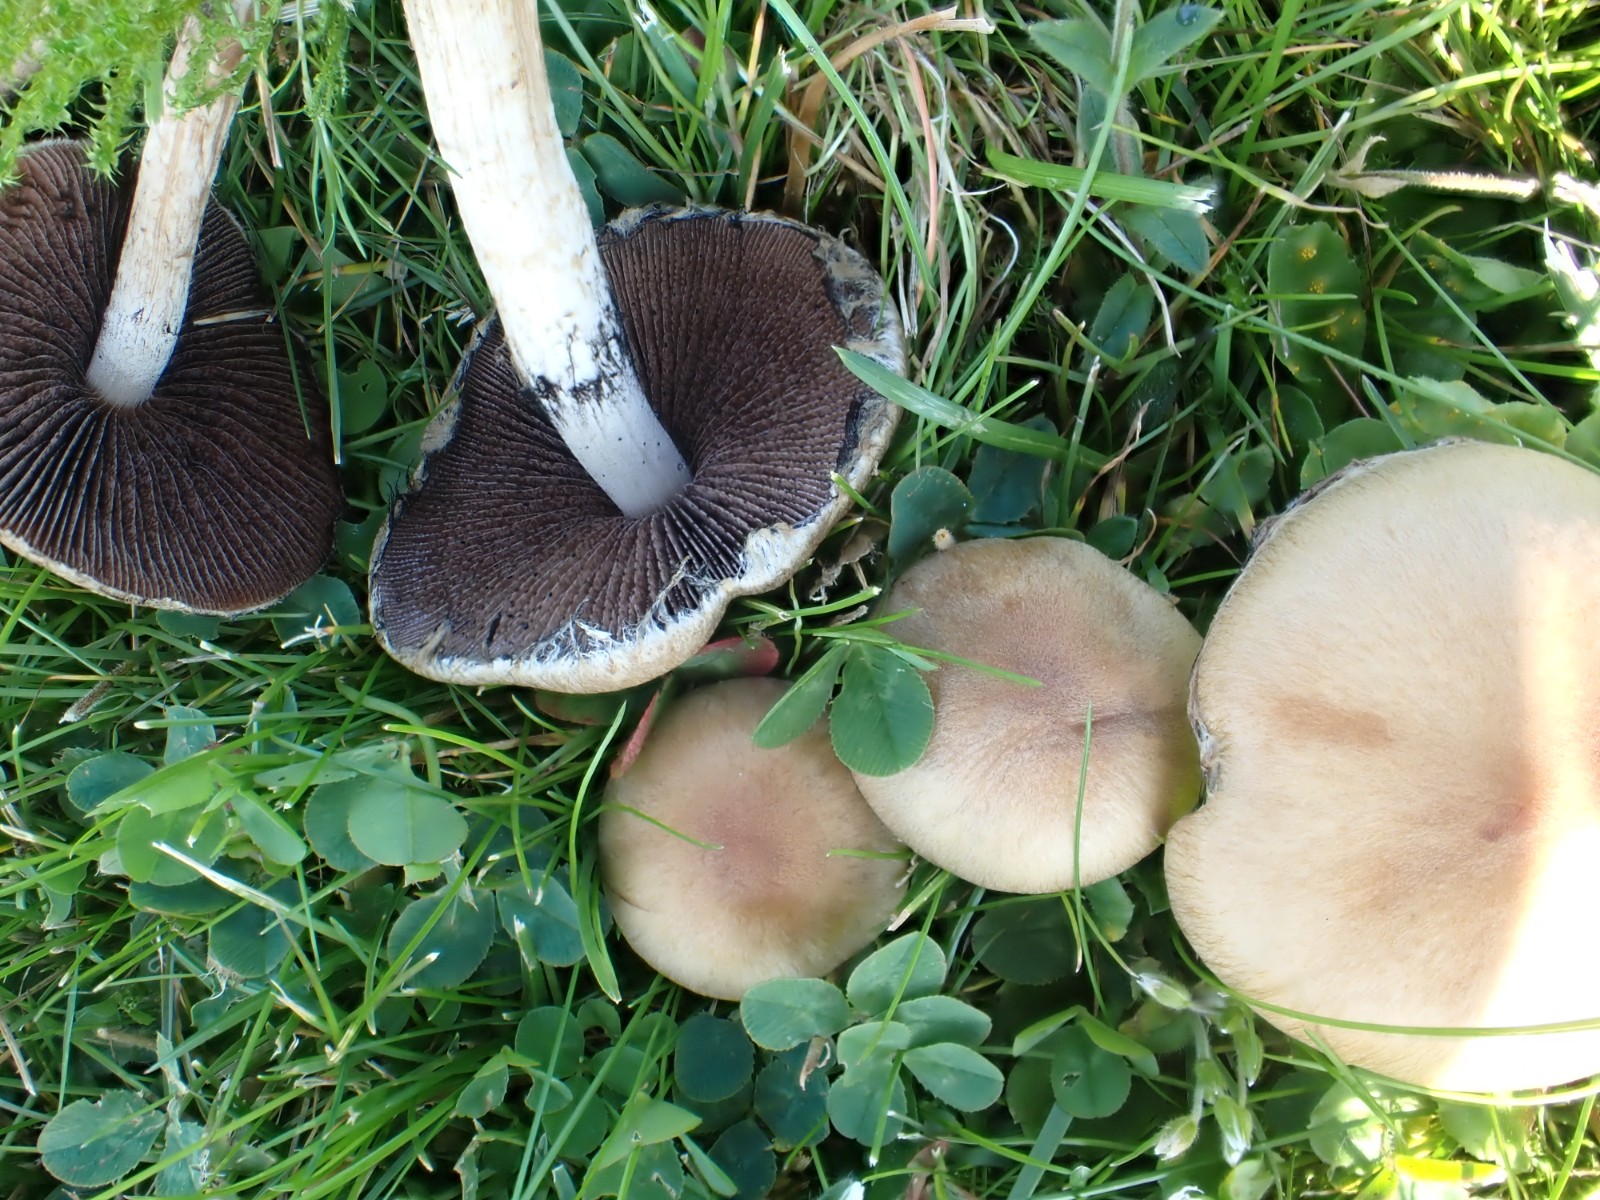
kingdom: Fungi
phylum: Basidiomycota
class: Agaricomycetes
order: Agaricales
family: Psathyrellaceae
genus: Lacrymaria
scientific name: Lacrymaria lacrymabunda
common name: grædende mørkhat
